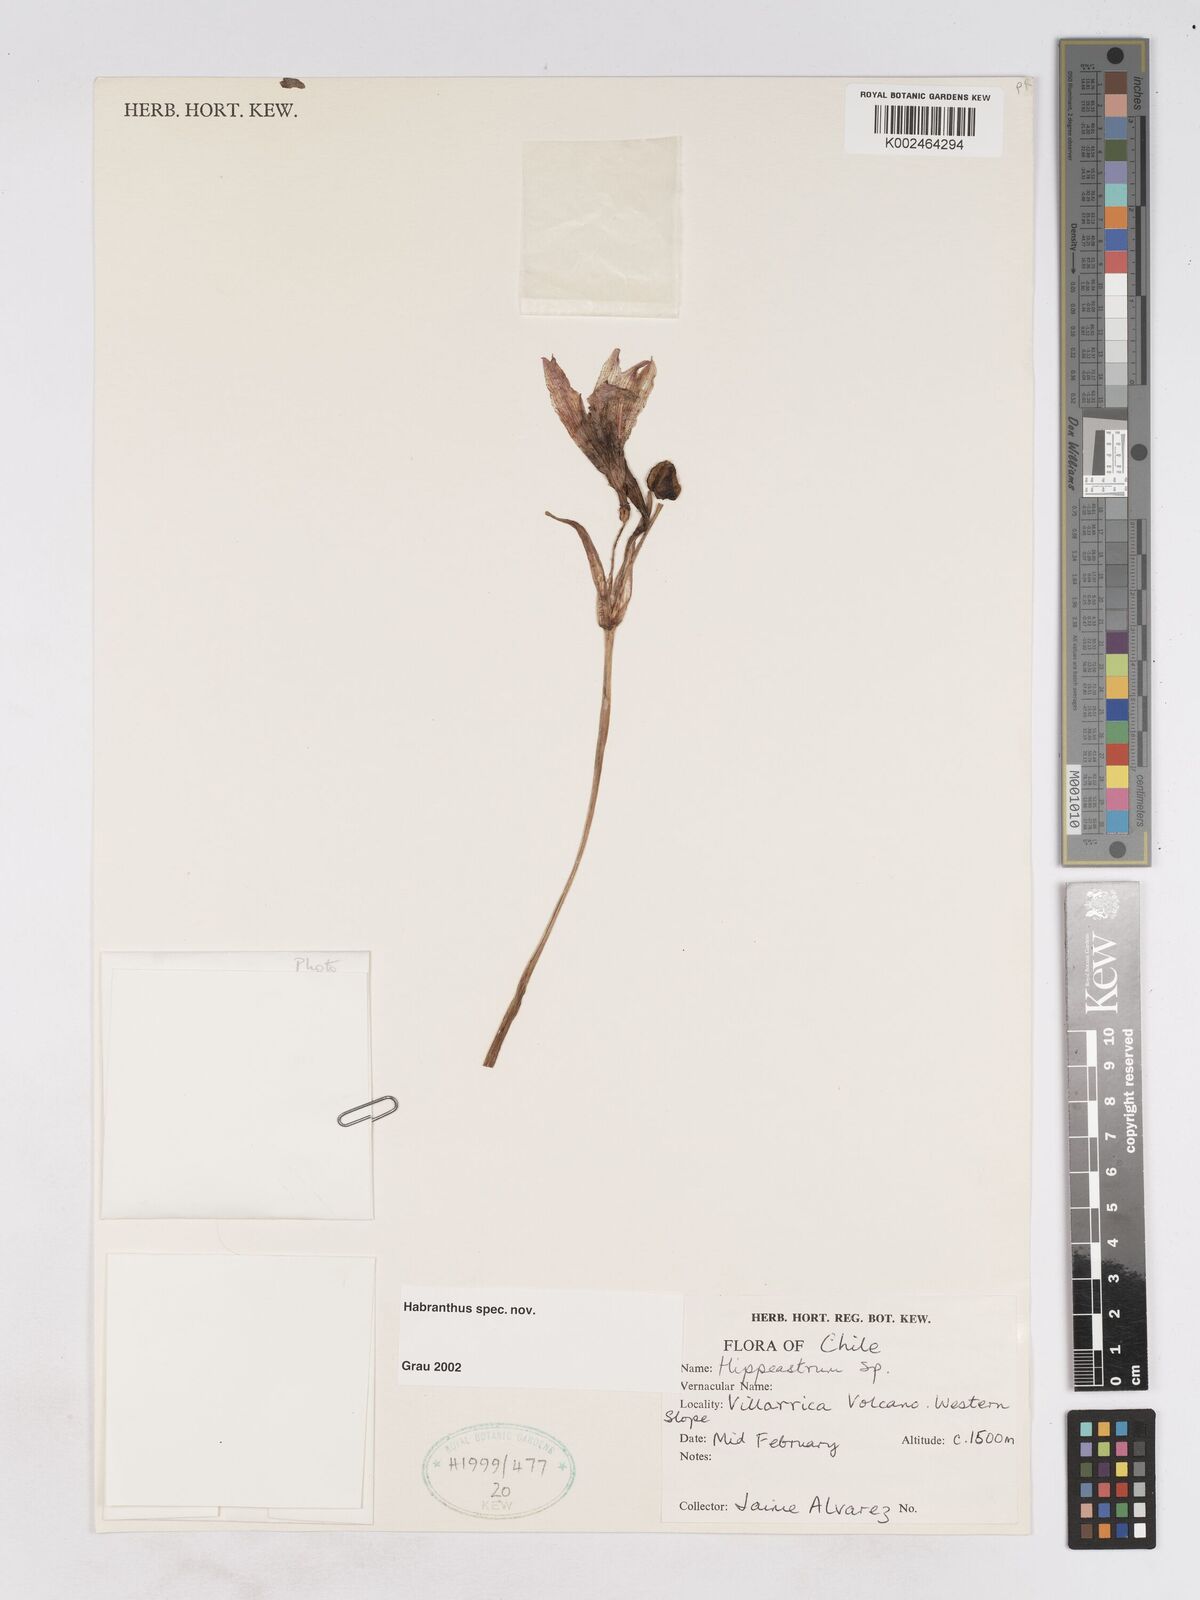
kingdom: Plantae
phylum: Tracheophyta
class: Liliopsida
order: Asparagales
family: Amaryllidaceae
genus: Zephyranthes
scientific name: Zephyranthes
